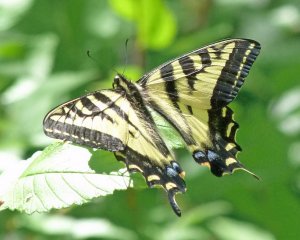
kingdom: Animalia
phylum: Arthropoda
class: Insecta
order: Lepidoptera
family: Papilionidae
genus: Pterourus
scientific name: Pterourus rutulus
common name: Western Tiger Swallowtail
